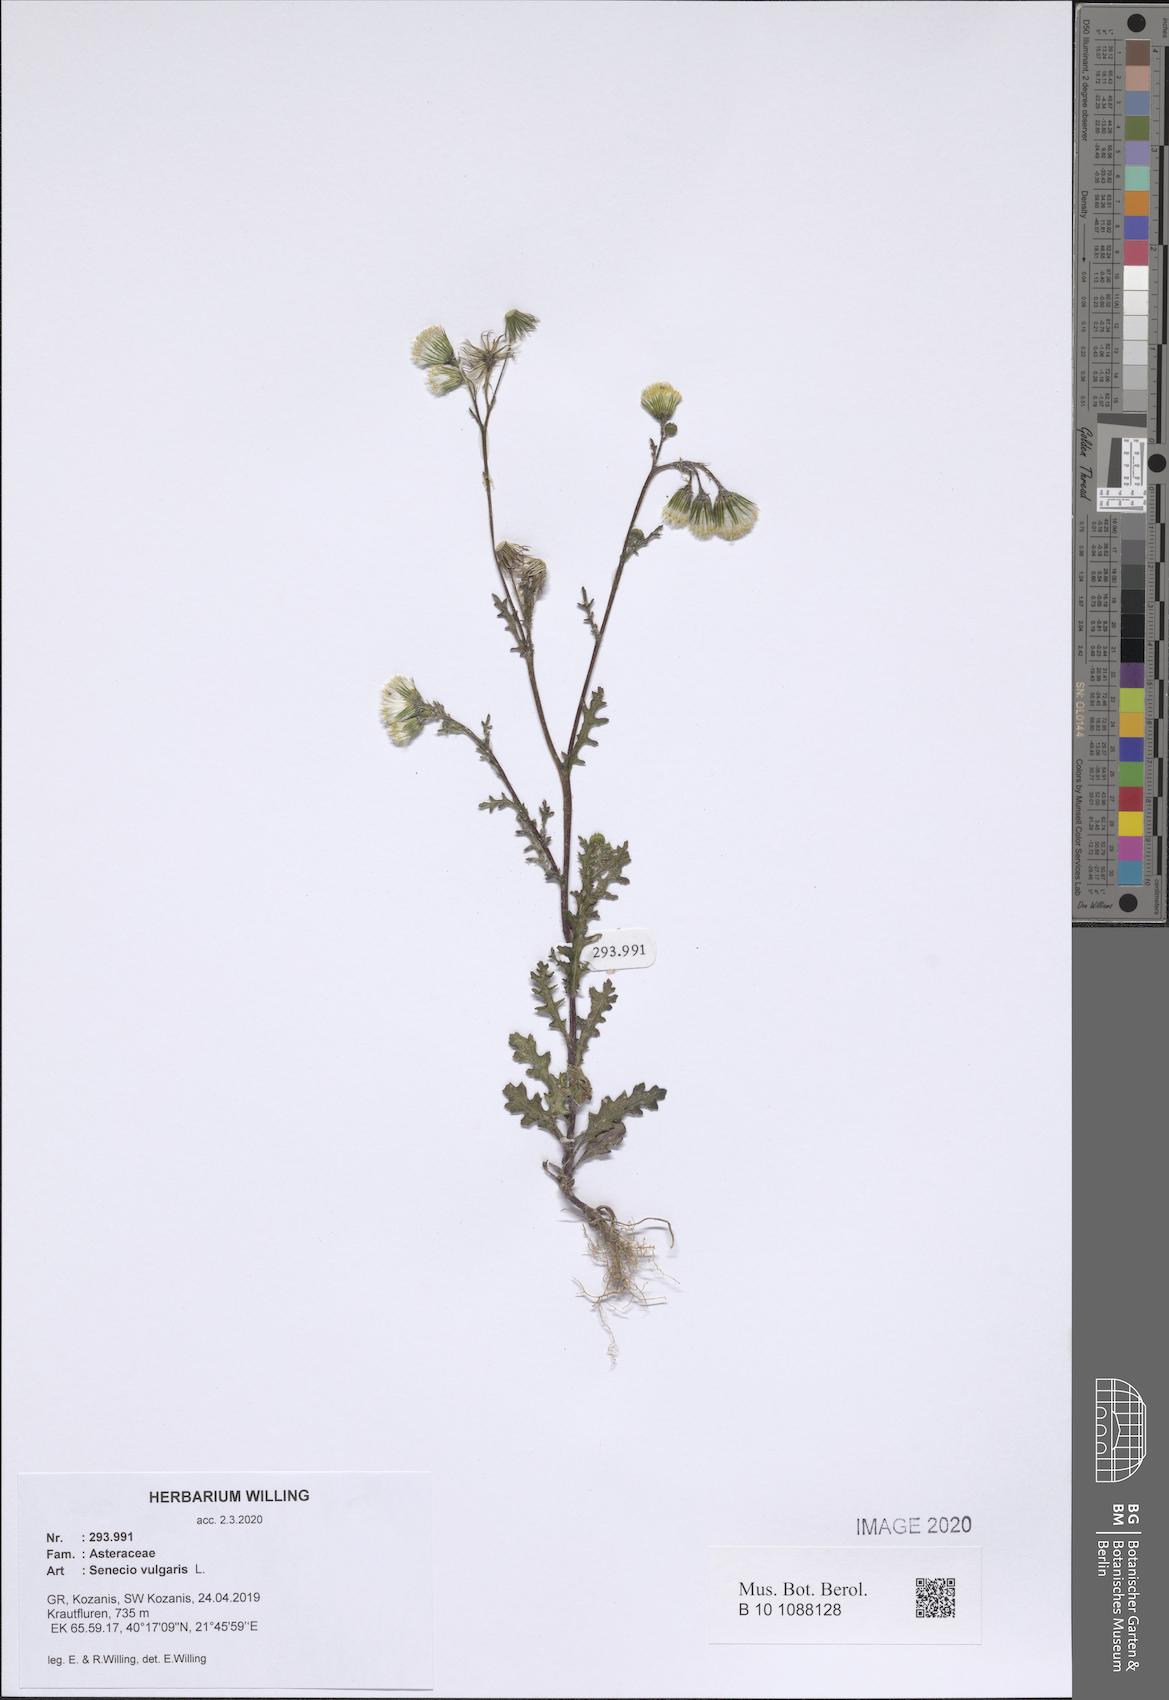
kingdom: Plantae
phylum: Tracheophyta
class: Magnoliopsida
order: Asterales
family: Asteraceae
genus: Senecio
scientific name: Senecio vulgaris
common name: Old-man-in-the-spring
